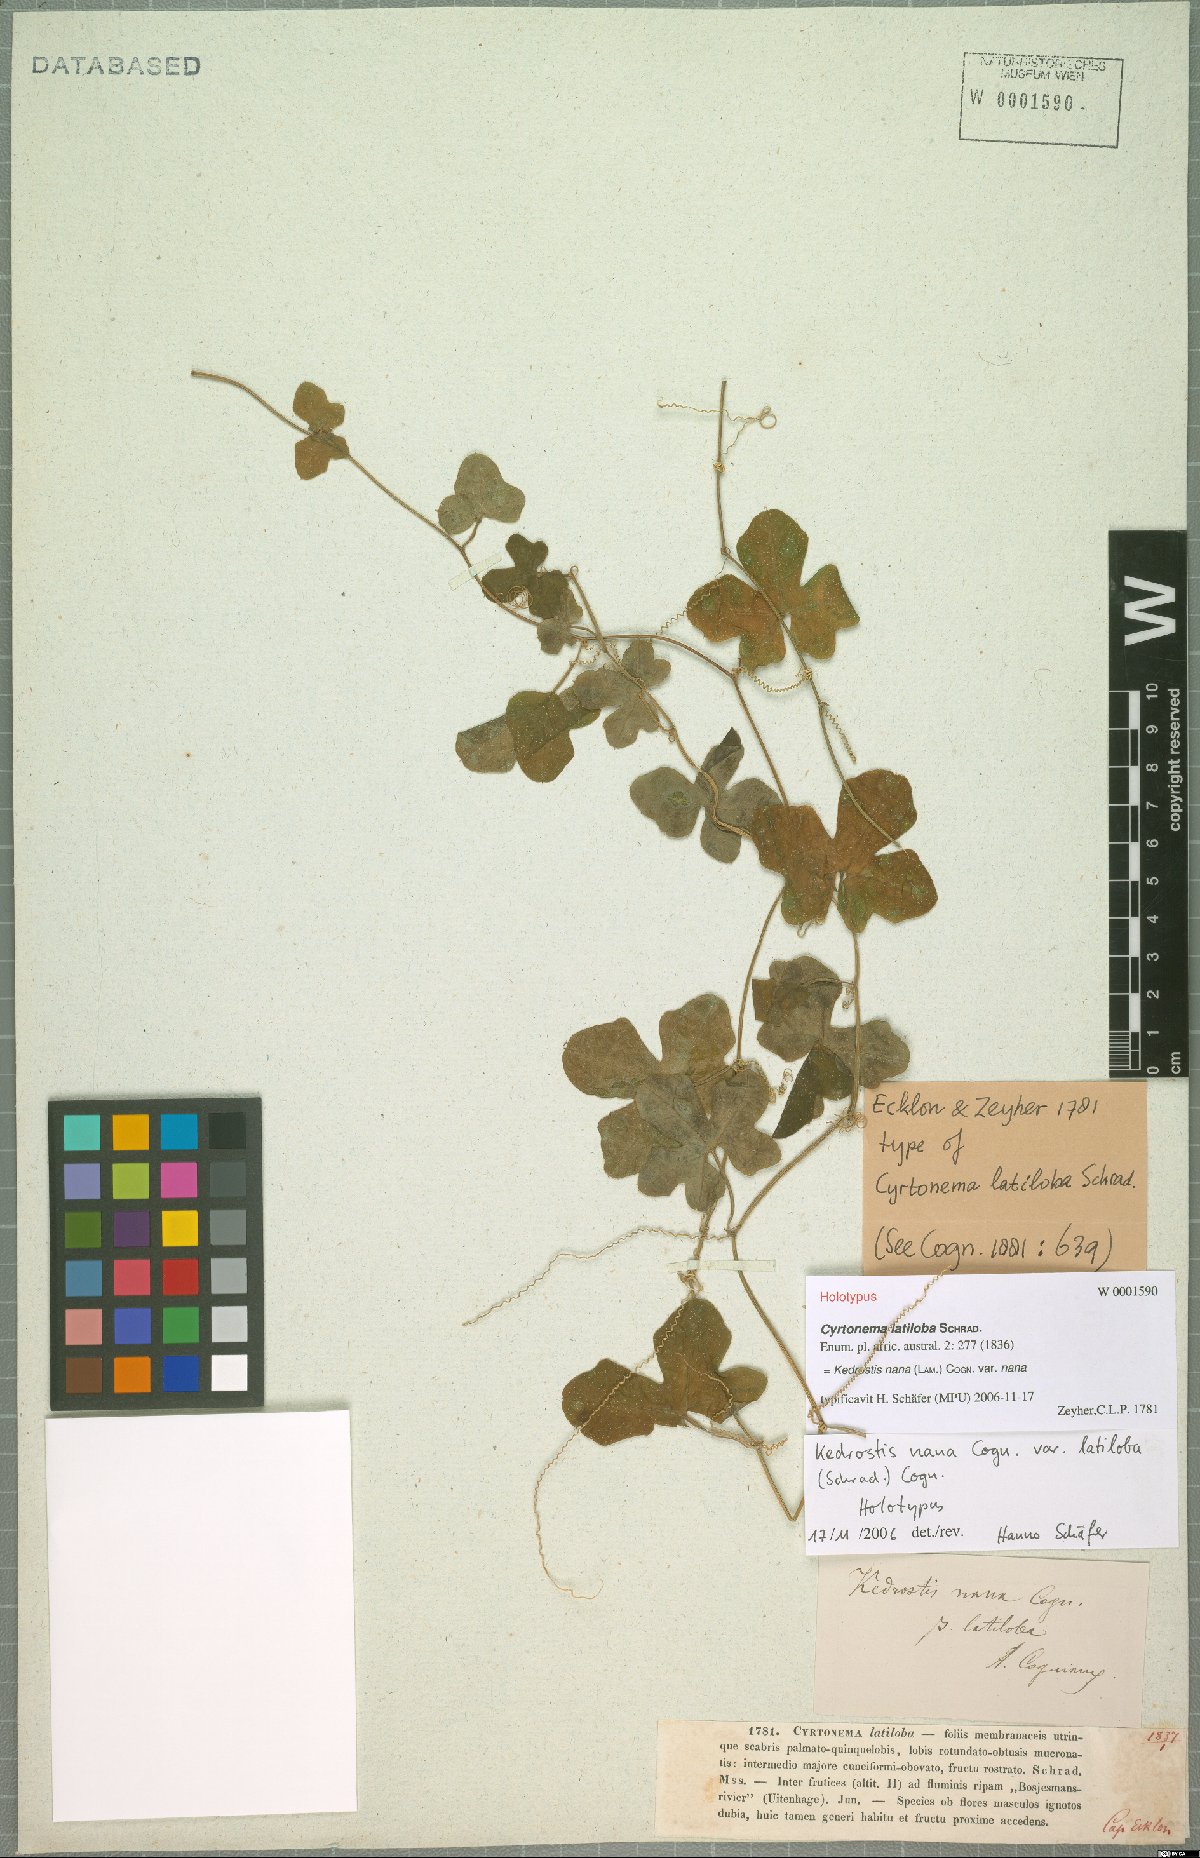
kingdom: Plantae
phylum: Tracheophyta
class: Magnoliopsida
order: Cucurbitales
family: Cucurbitaceae
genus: Kedrostis
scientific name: Kedrostis nana
